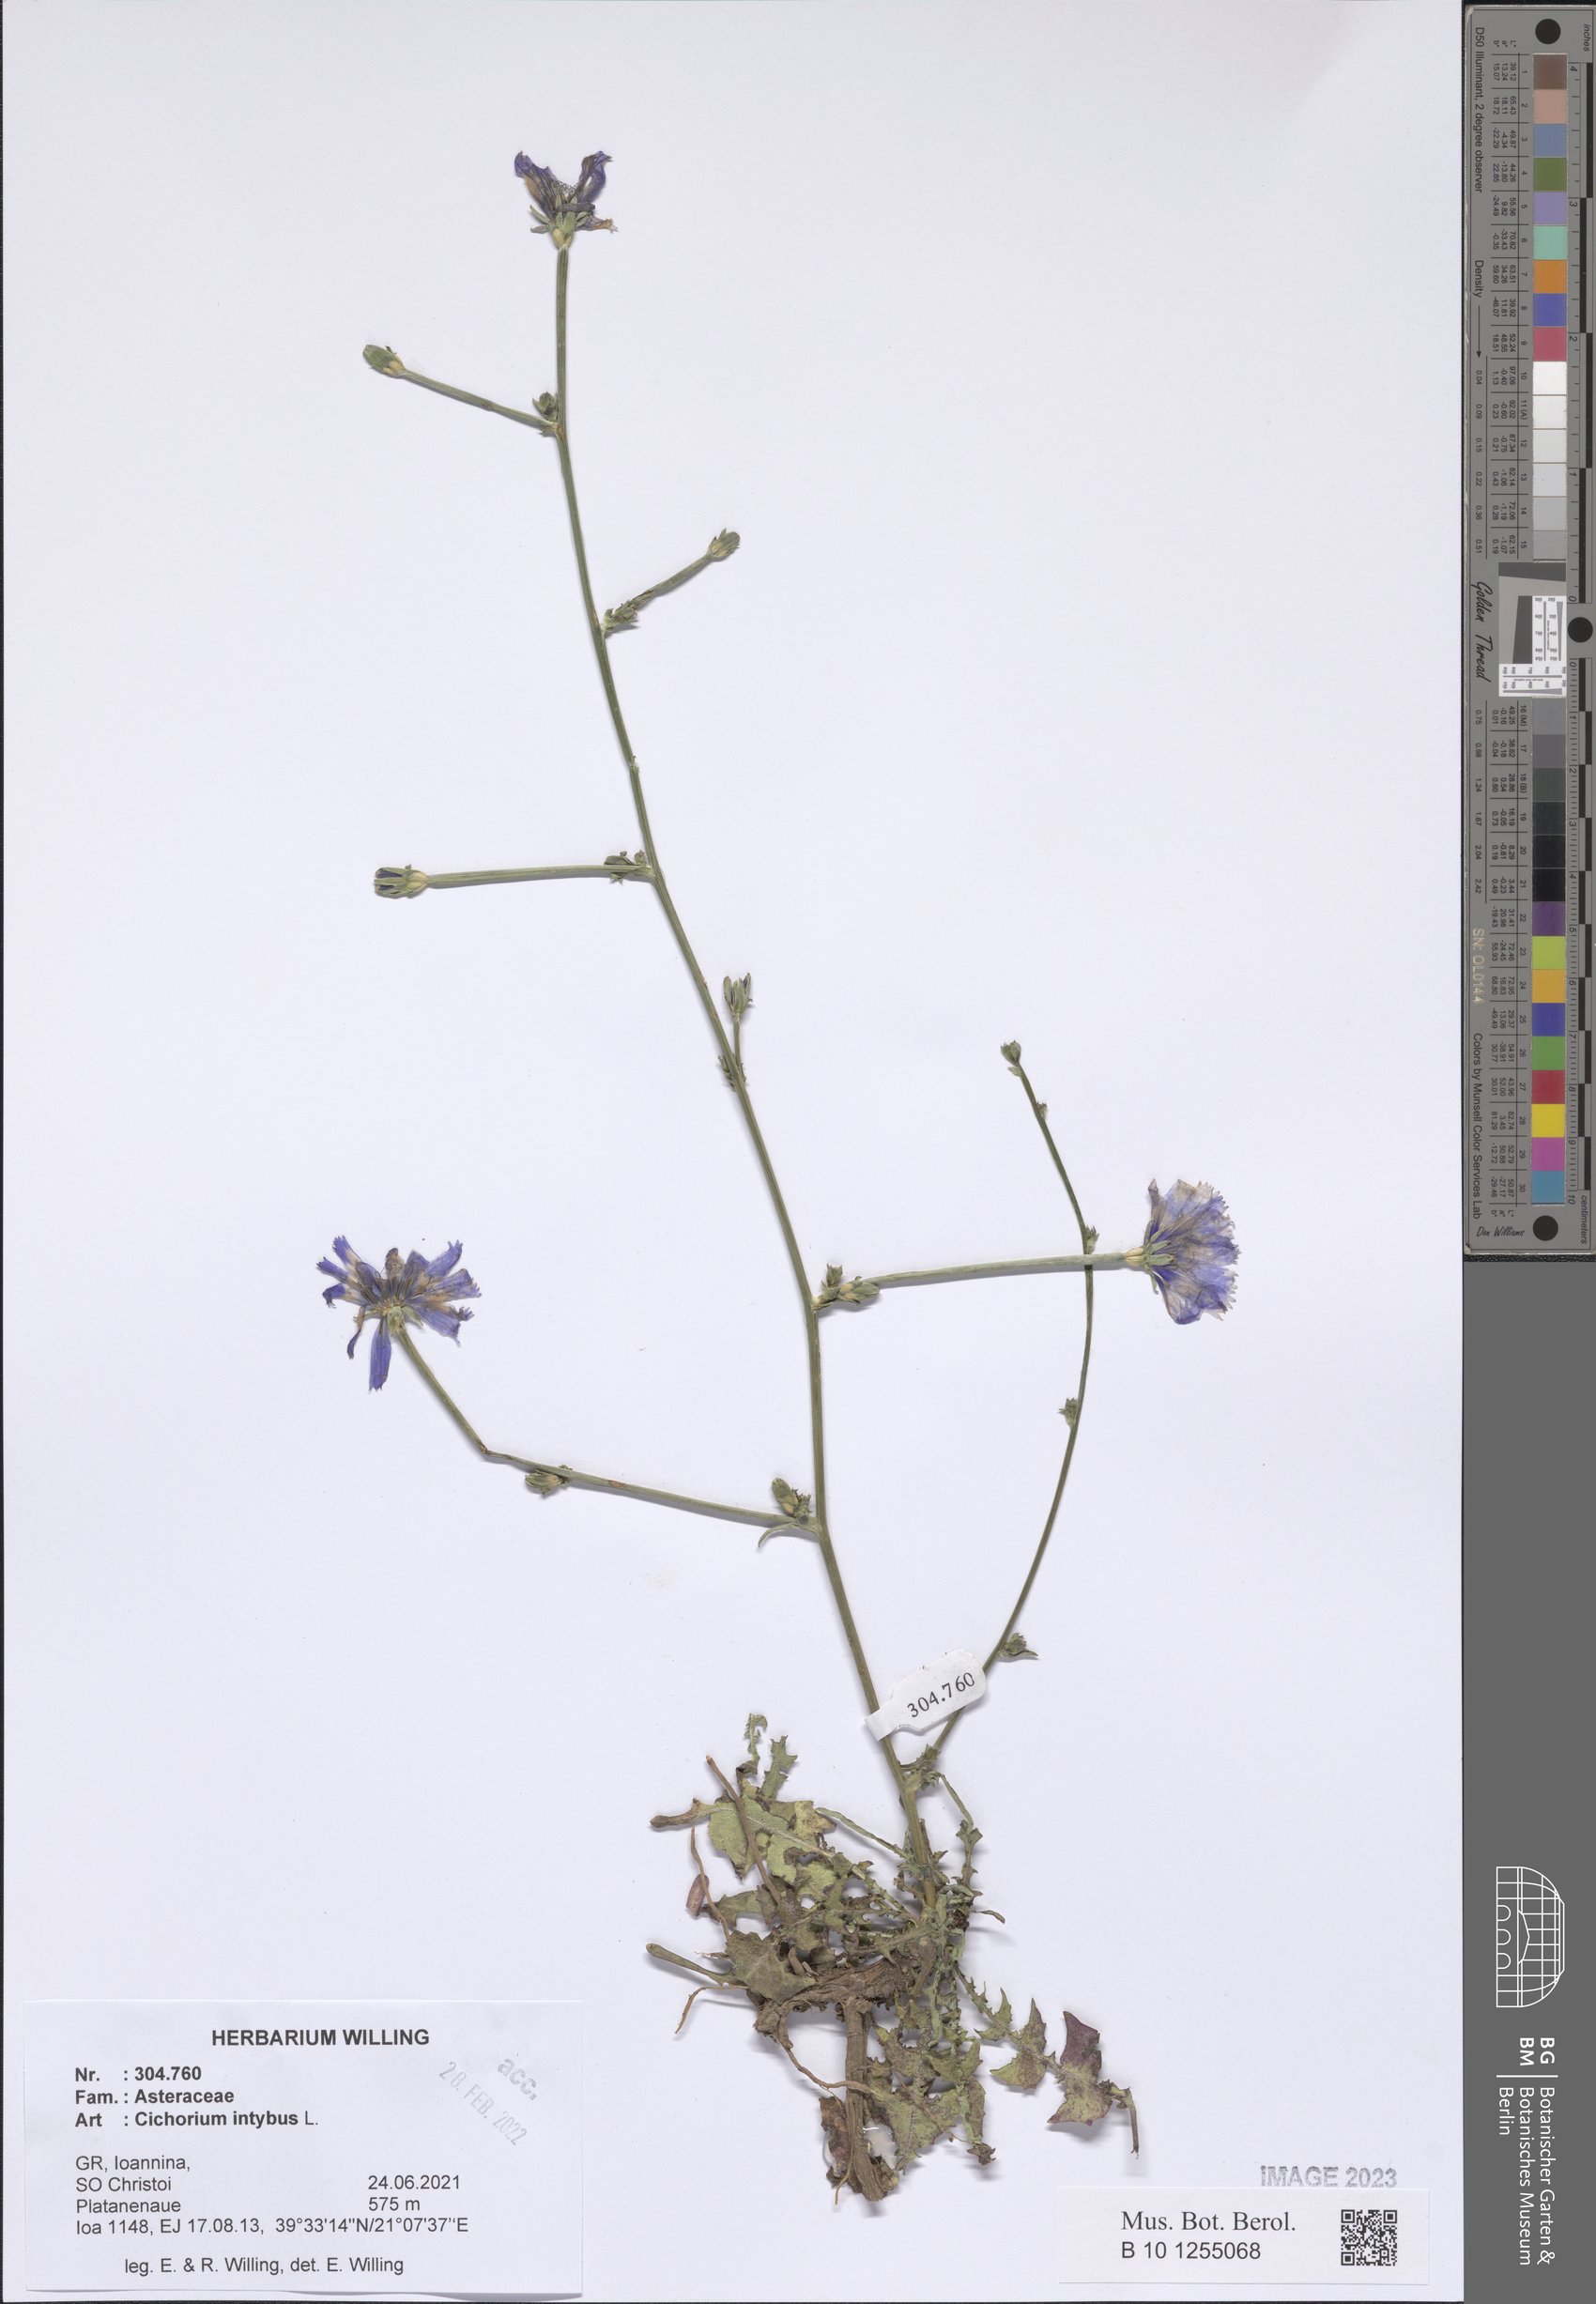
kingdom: Plantae
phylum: Tracheophyta
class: Magnoliopsida
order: Asterales
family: Asteraceae
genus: Cichorium
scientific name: Cichorium intybus
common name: Chicory
